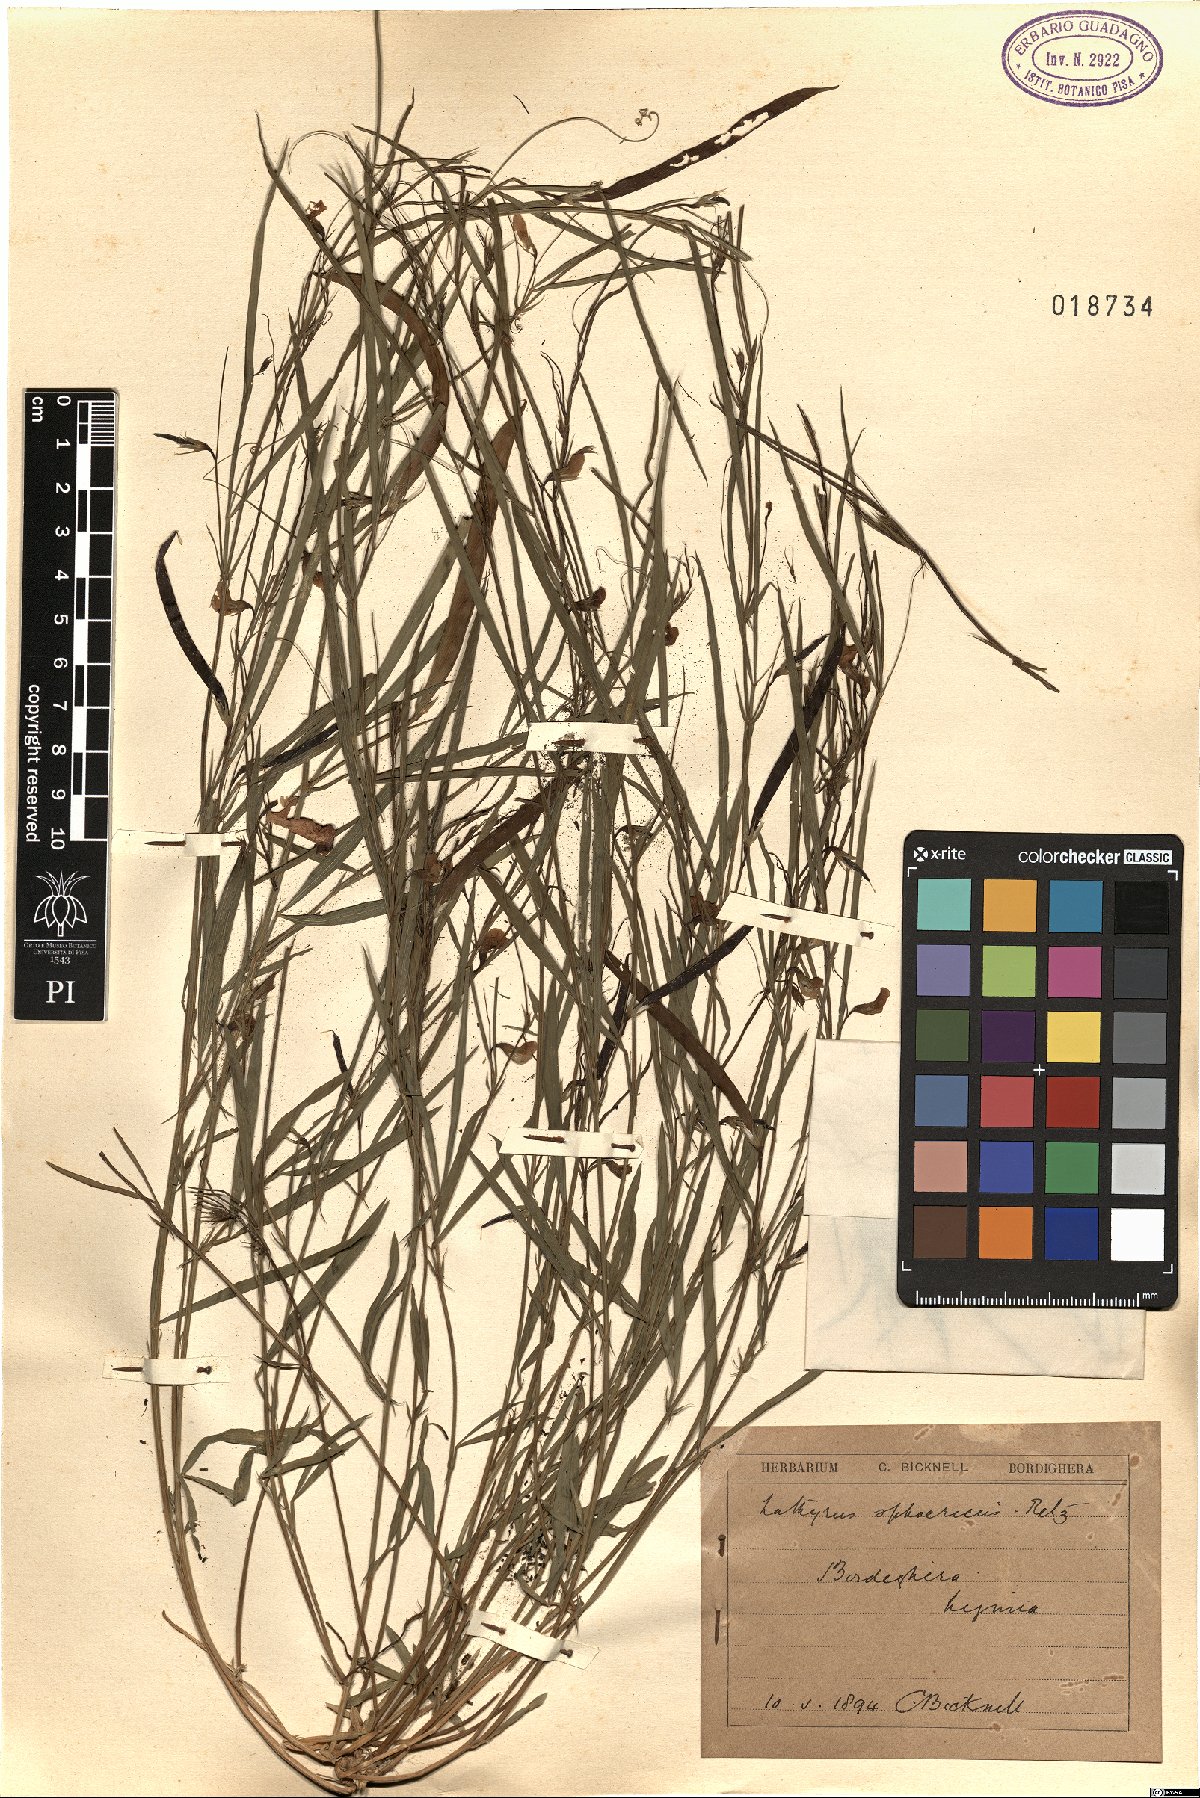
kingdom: Plantae
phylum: Tracheophyta
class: Magnoliopsida
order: Fabales
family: Fabaceae
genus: Lathyrus
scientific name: Lathyrus sphaericus
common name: Grass pea
